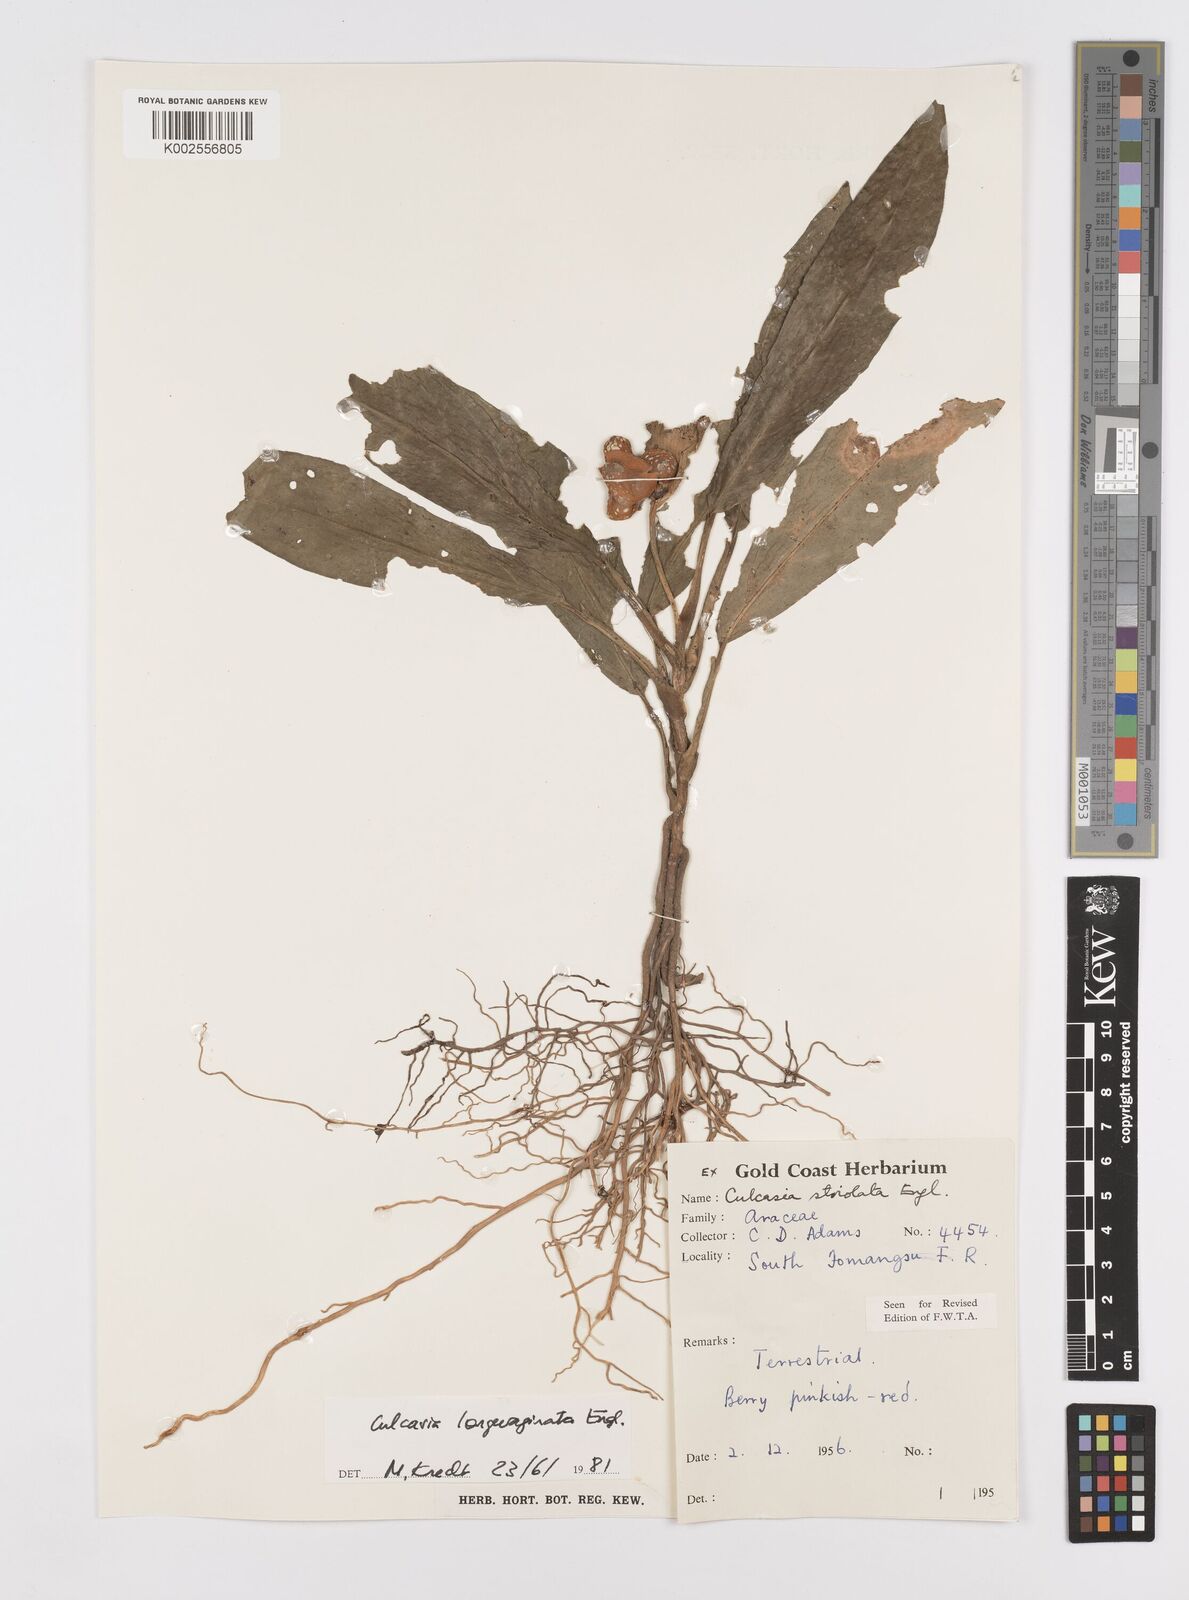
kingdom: Plantae
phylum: Tracheophyta
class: Liliopsida
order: Alismatales
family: Araceae
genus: Culcasia
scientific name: Culcasia striolata
